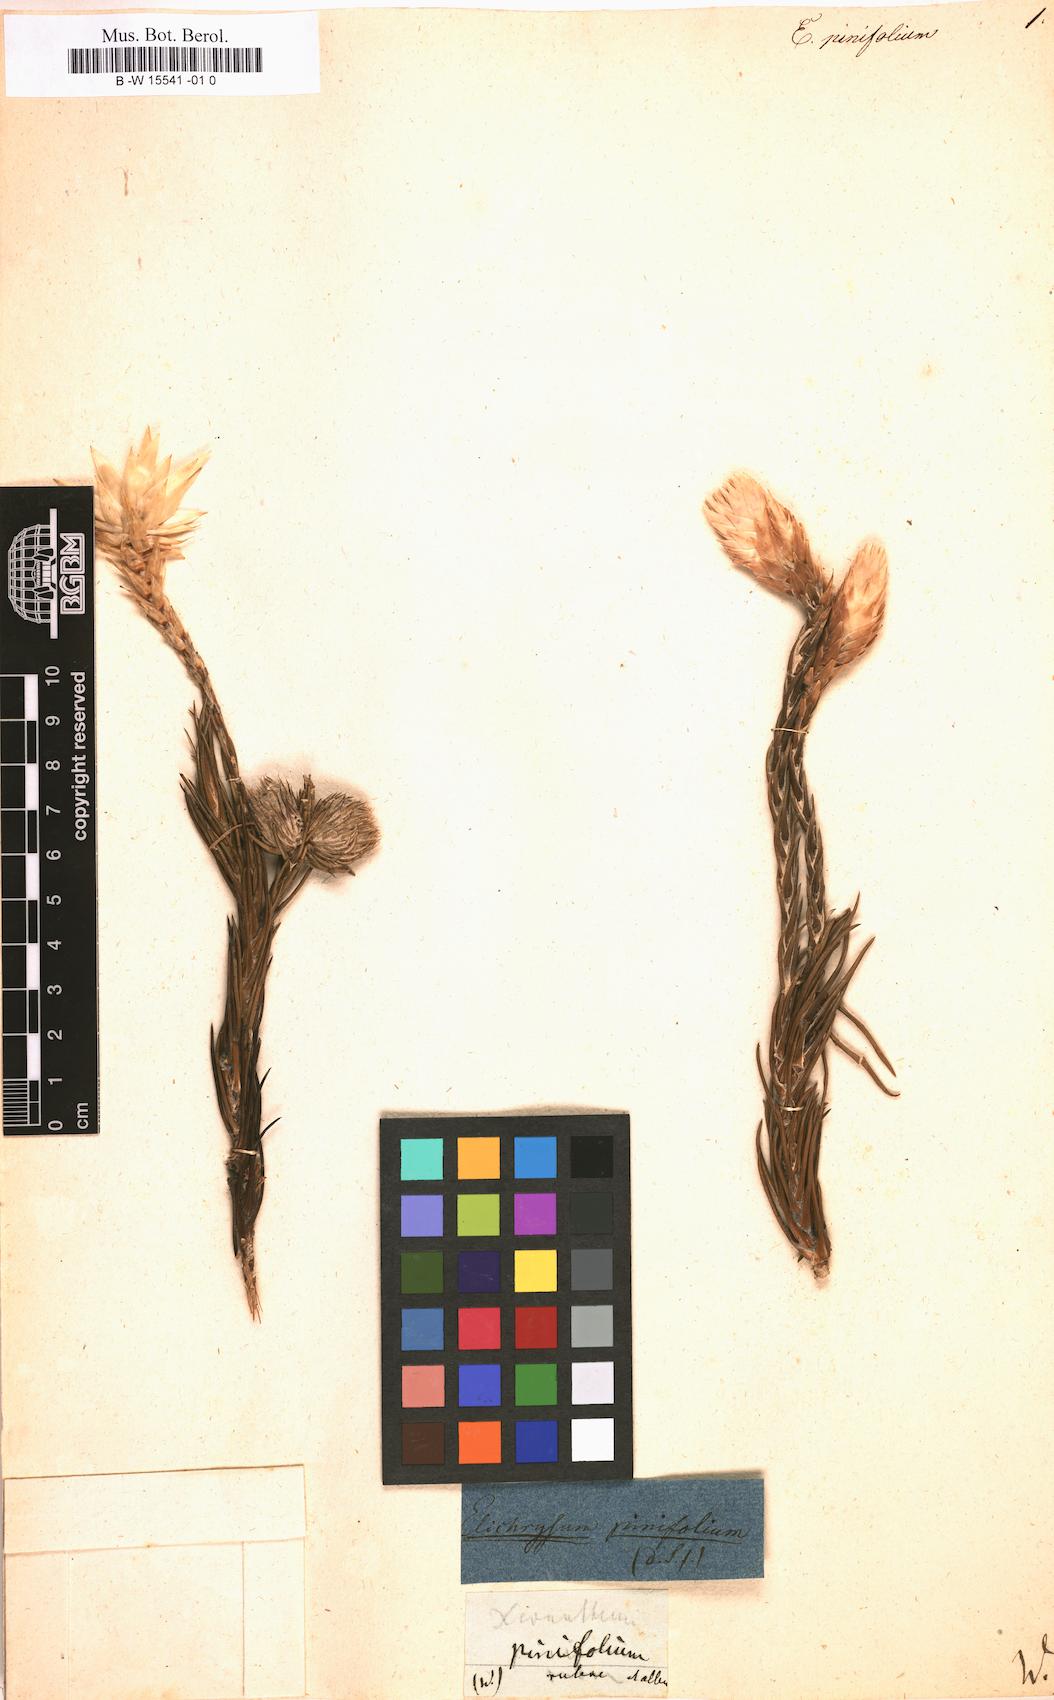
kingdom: Plantae
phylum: Tracheophyta
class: Magnoliopsida
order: Asterales
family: Asteraceae
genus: Helichrysum
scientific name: Helichrysum
